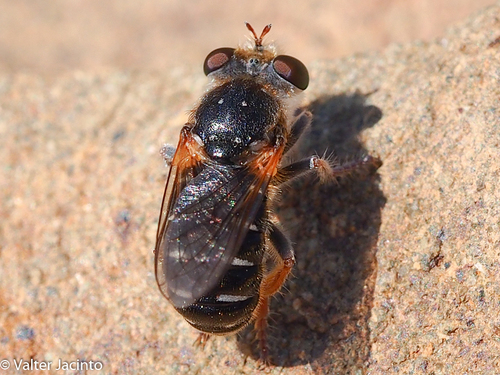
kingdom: Animalia
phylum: Arthropoda
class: Insecta
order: Diptera
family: Asilidae
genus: Glyphotriclis
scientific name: Glyphotriclis ornatus
